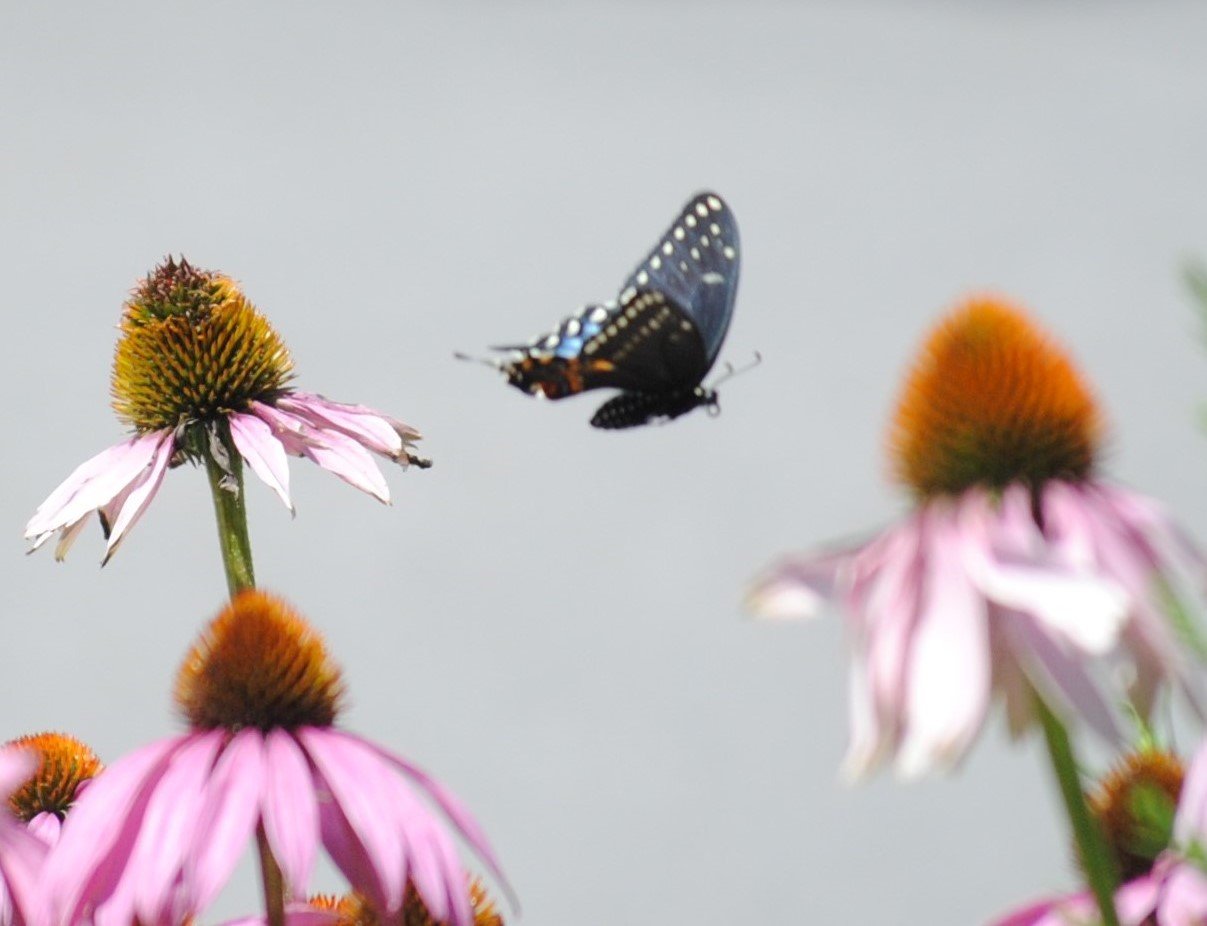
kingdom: Animalia
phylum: Arthropoda
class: Insecta
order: Lepidoptera
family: Papilionidae
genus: Papilio
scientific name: Papilio polyxenes
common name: Black Swallowtail
